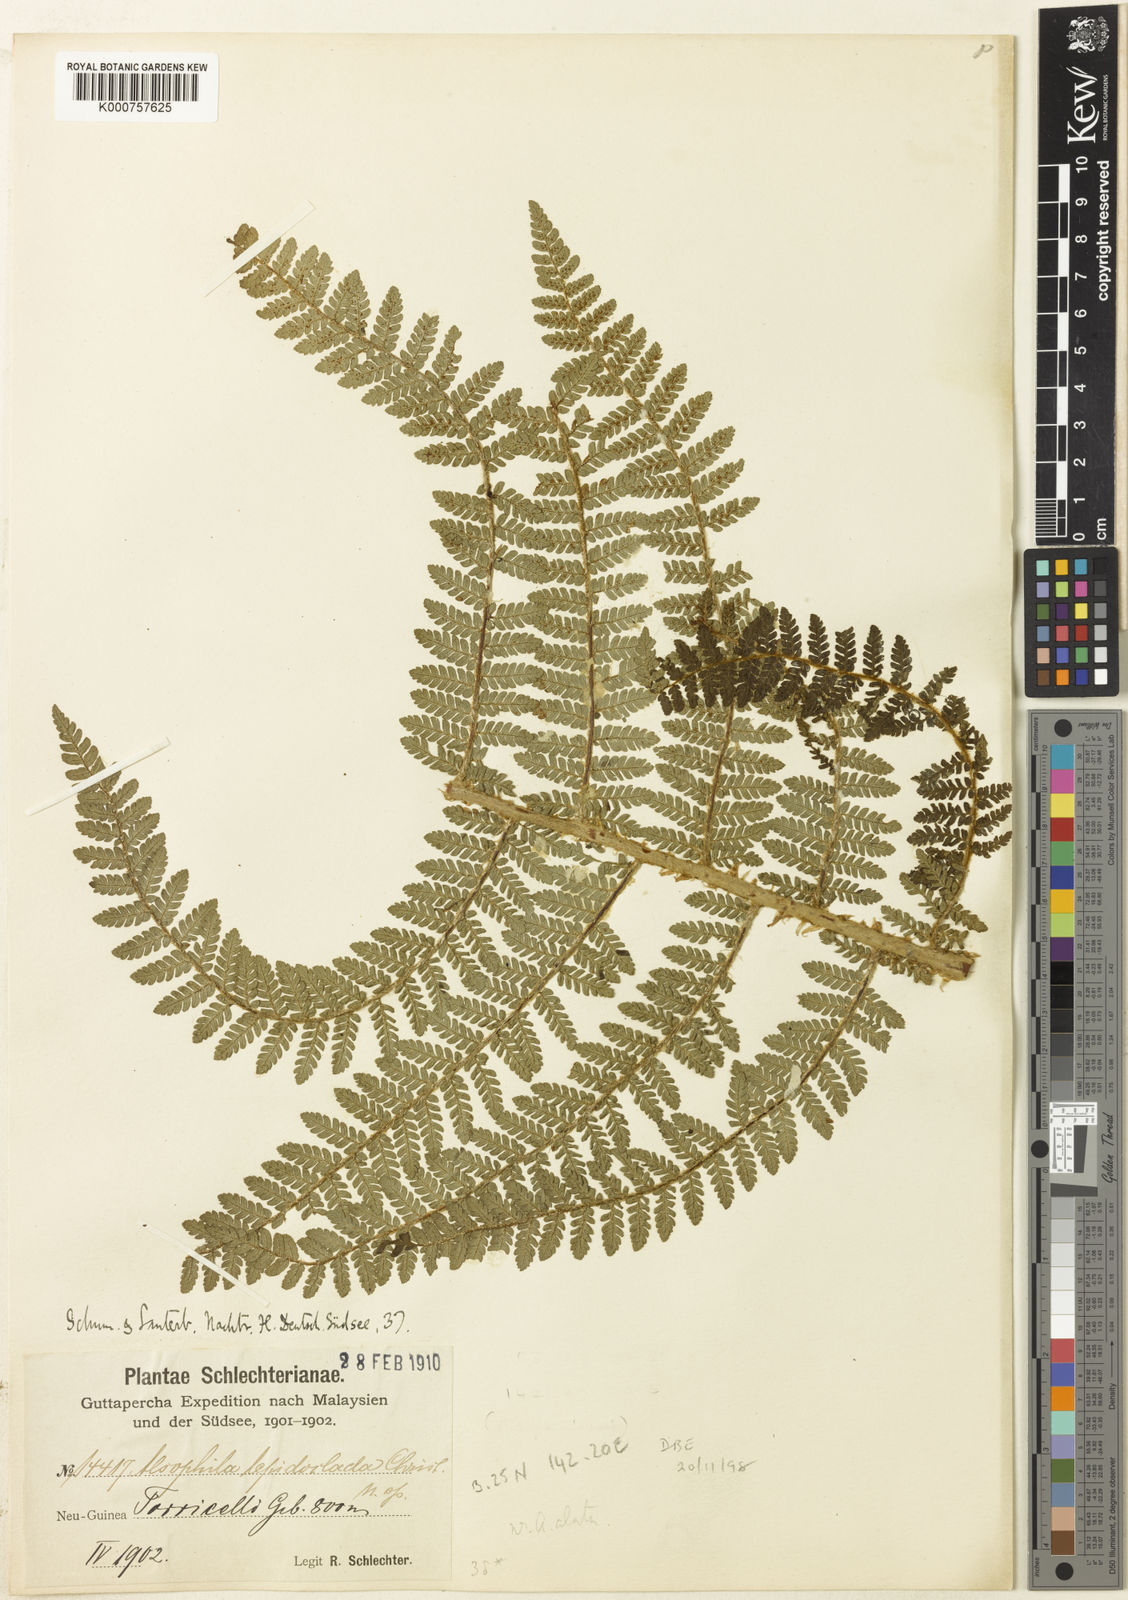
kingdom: Plantae
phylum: Tracheophyta
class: Polypodiopsida
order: Cyatheales
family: Cyatheaceae
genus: Alsophila
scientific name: Alsophila lepidoclada
